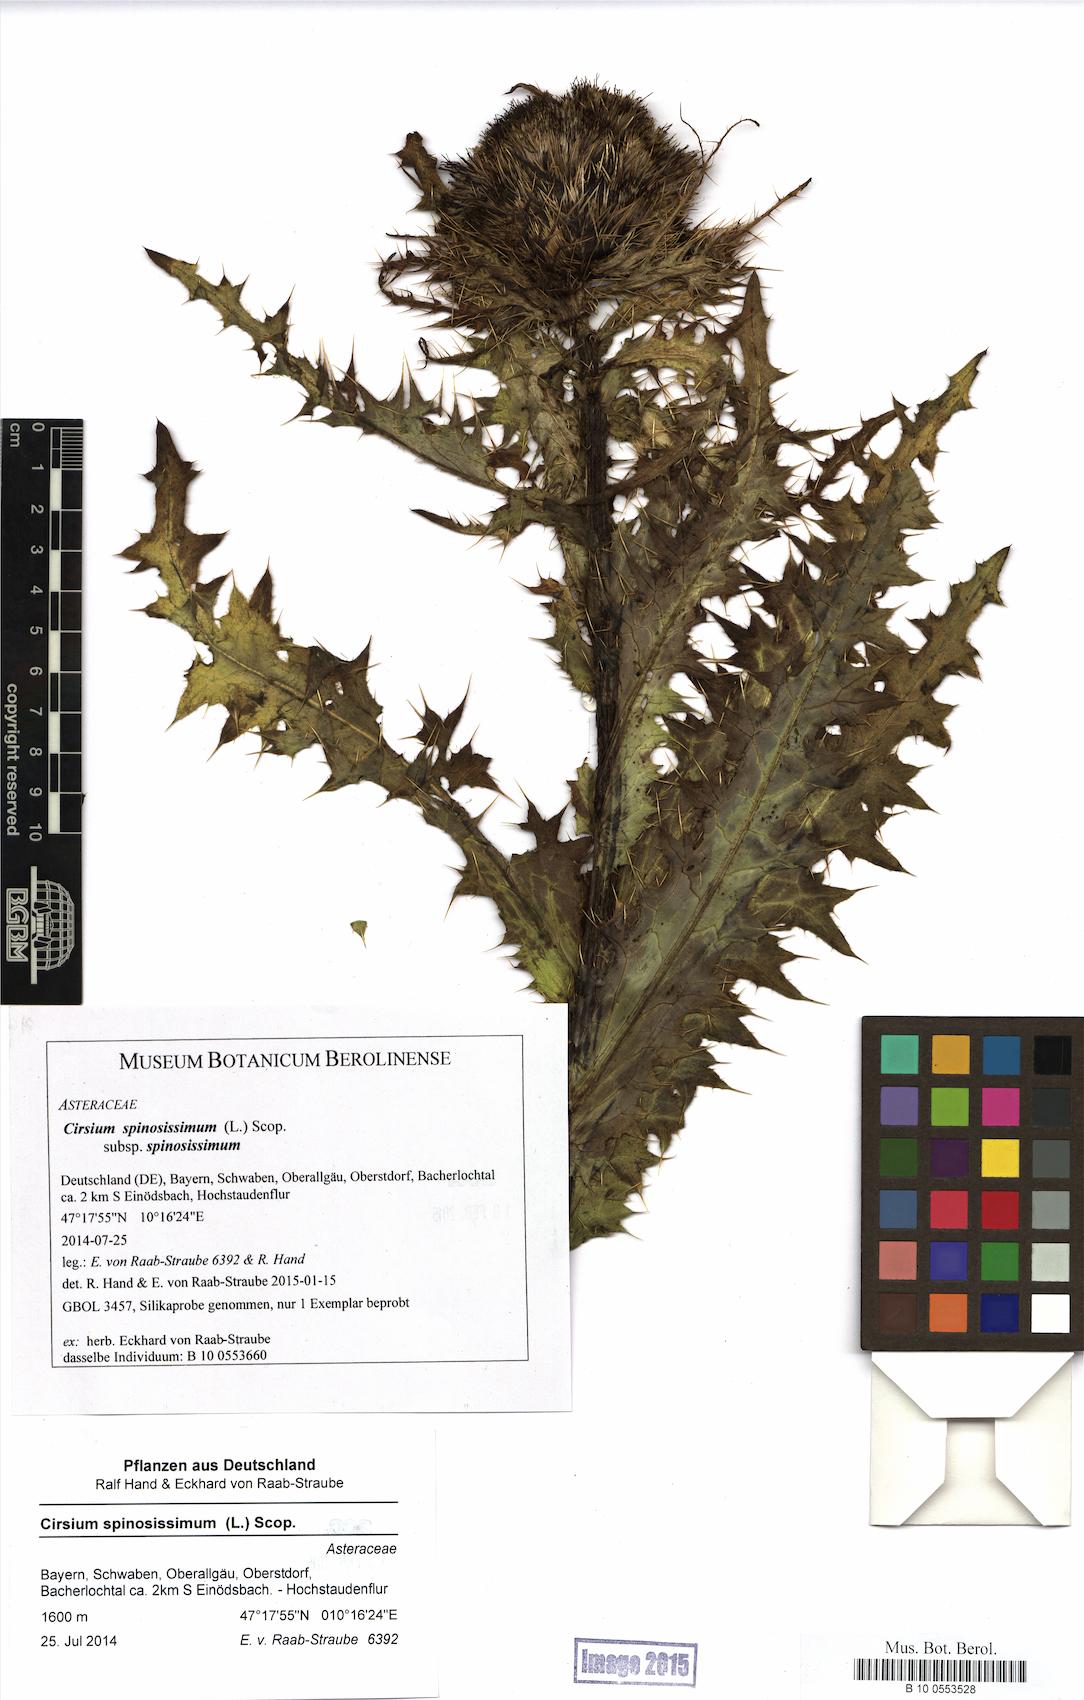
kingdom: Plantae
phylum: Tracheophyta
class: Magnoliopsida
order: Asterales
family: Asteraceae
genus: Cirsium
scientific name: Cirsium spinosissimum
